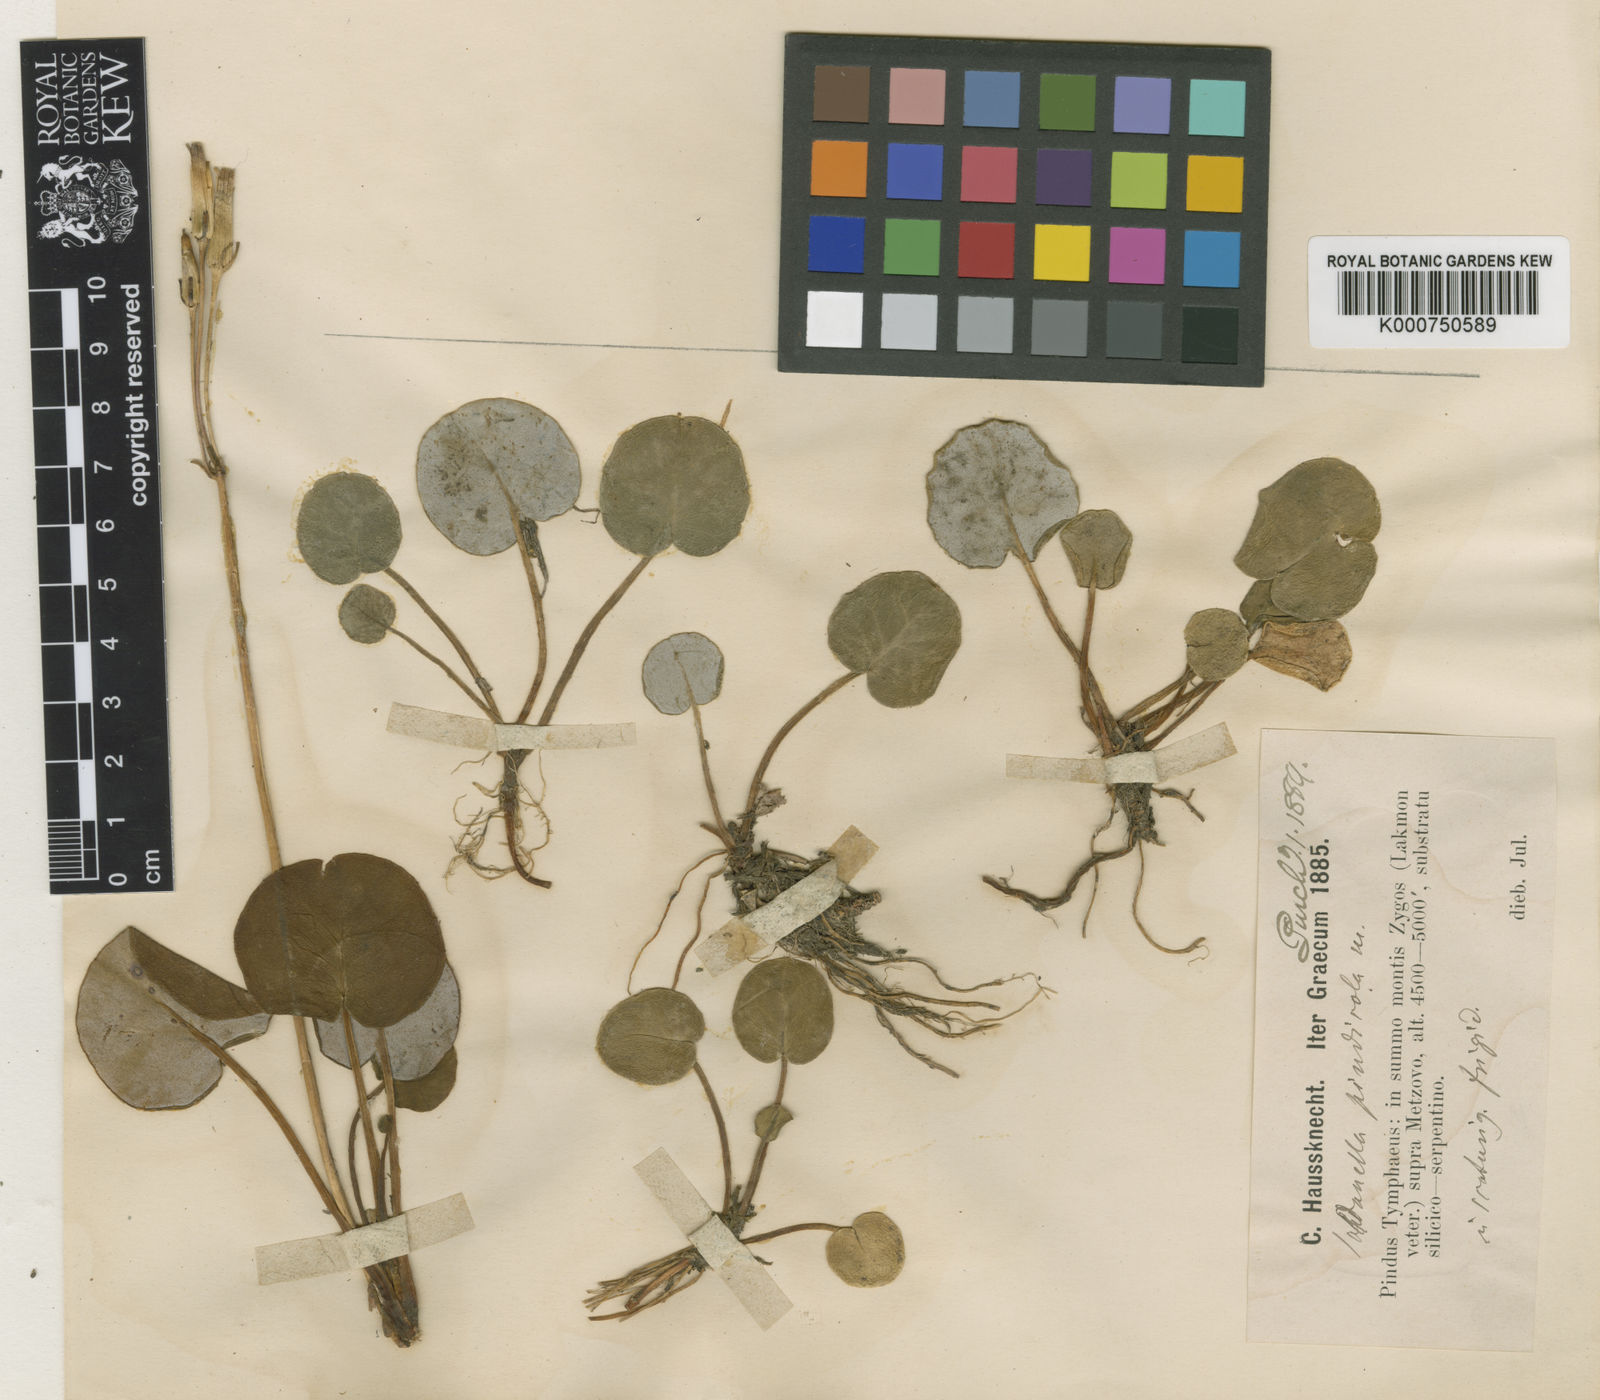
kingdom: Plantae
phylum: Tracheophyta
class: Magnoliopsida
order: Ericales
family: Primulaceae
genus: Soldanella
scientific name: Soldanella pindicola
